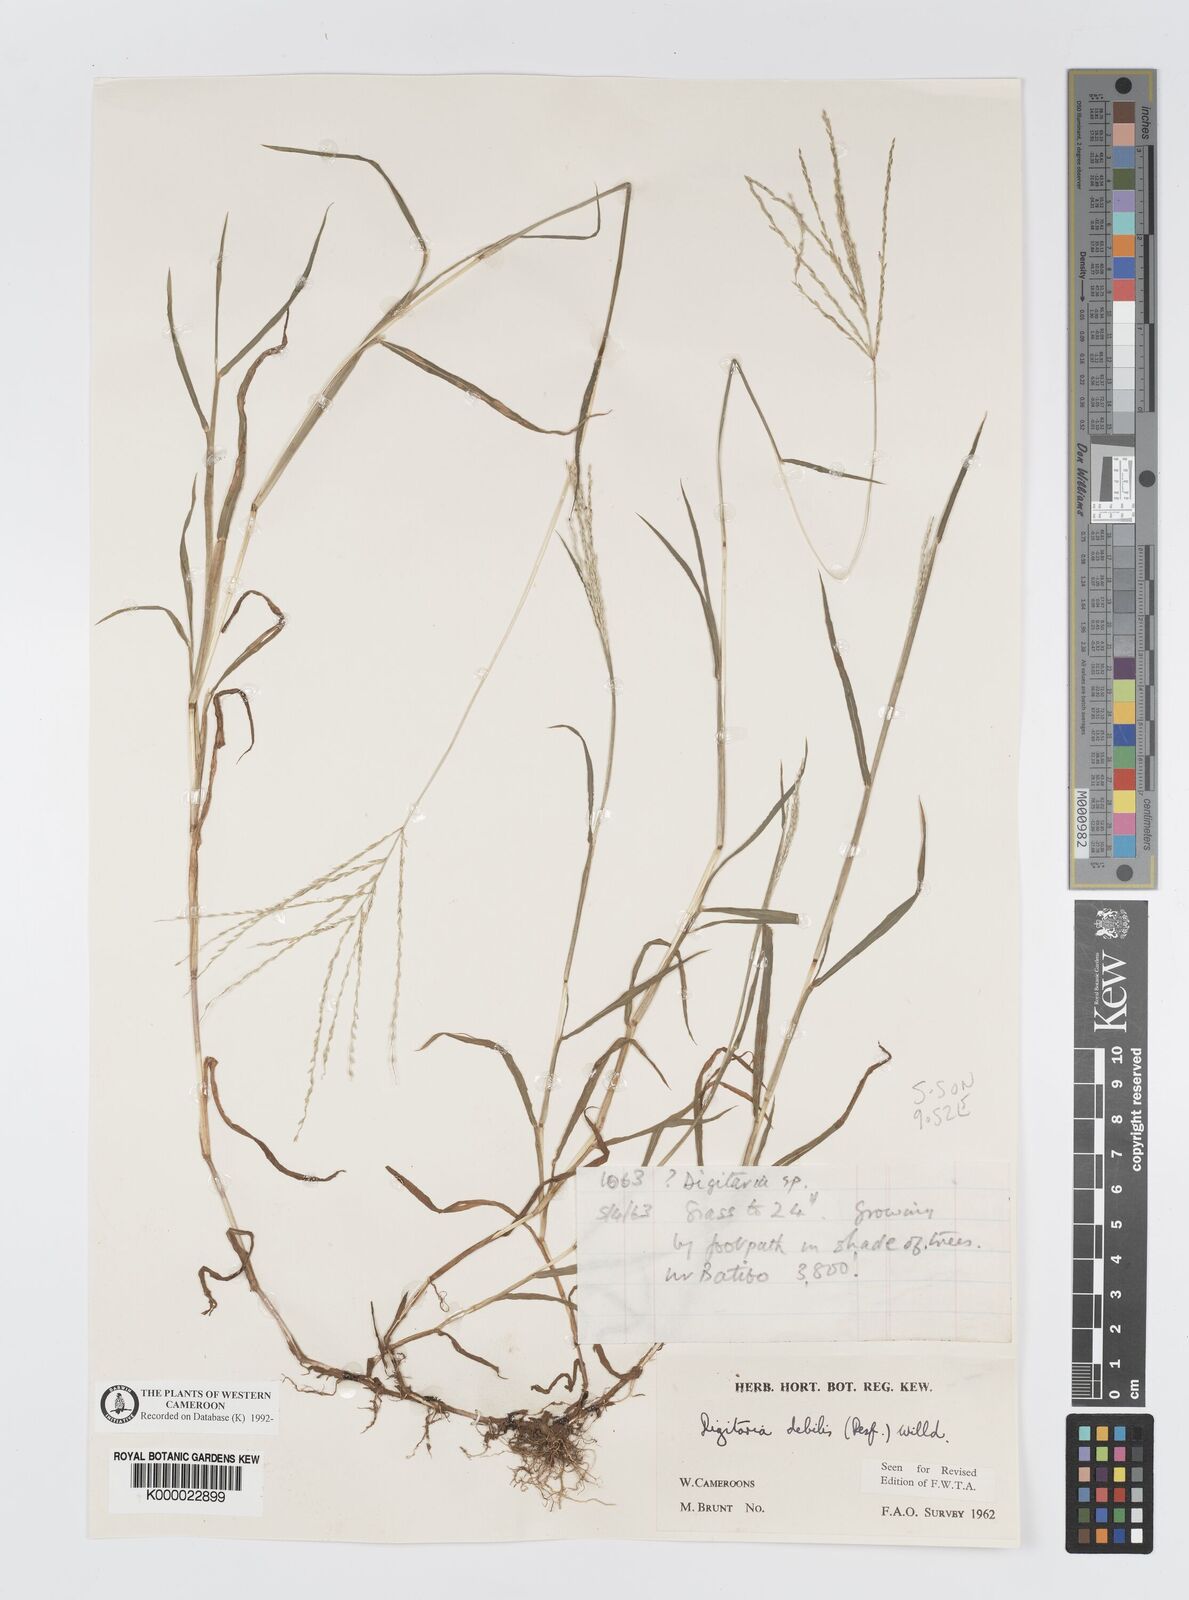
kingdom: Plantae
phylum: Tracheophyta
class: Liliopsida
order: Poales
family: Poaceae
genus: Digitaria
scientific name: Digitaria debilis
